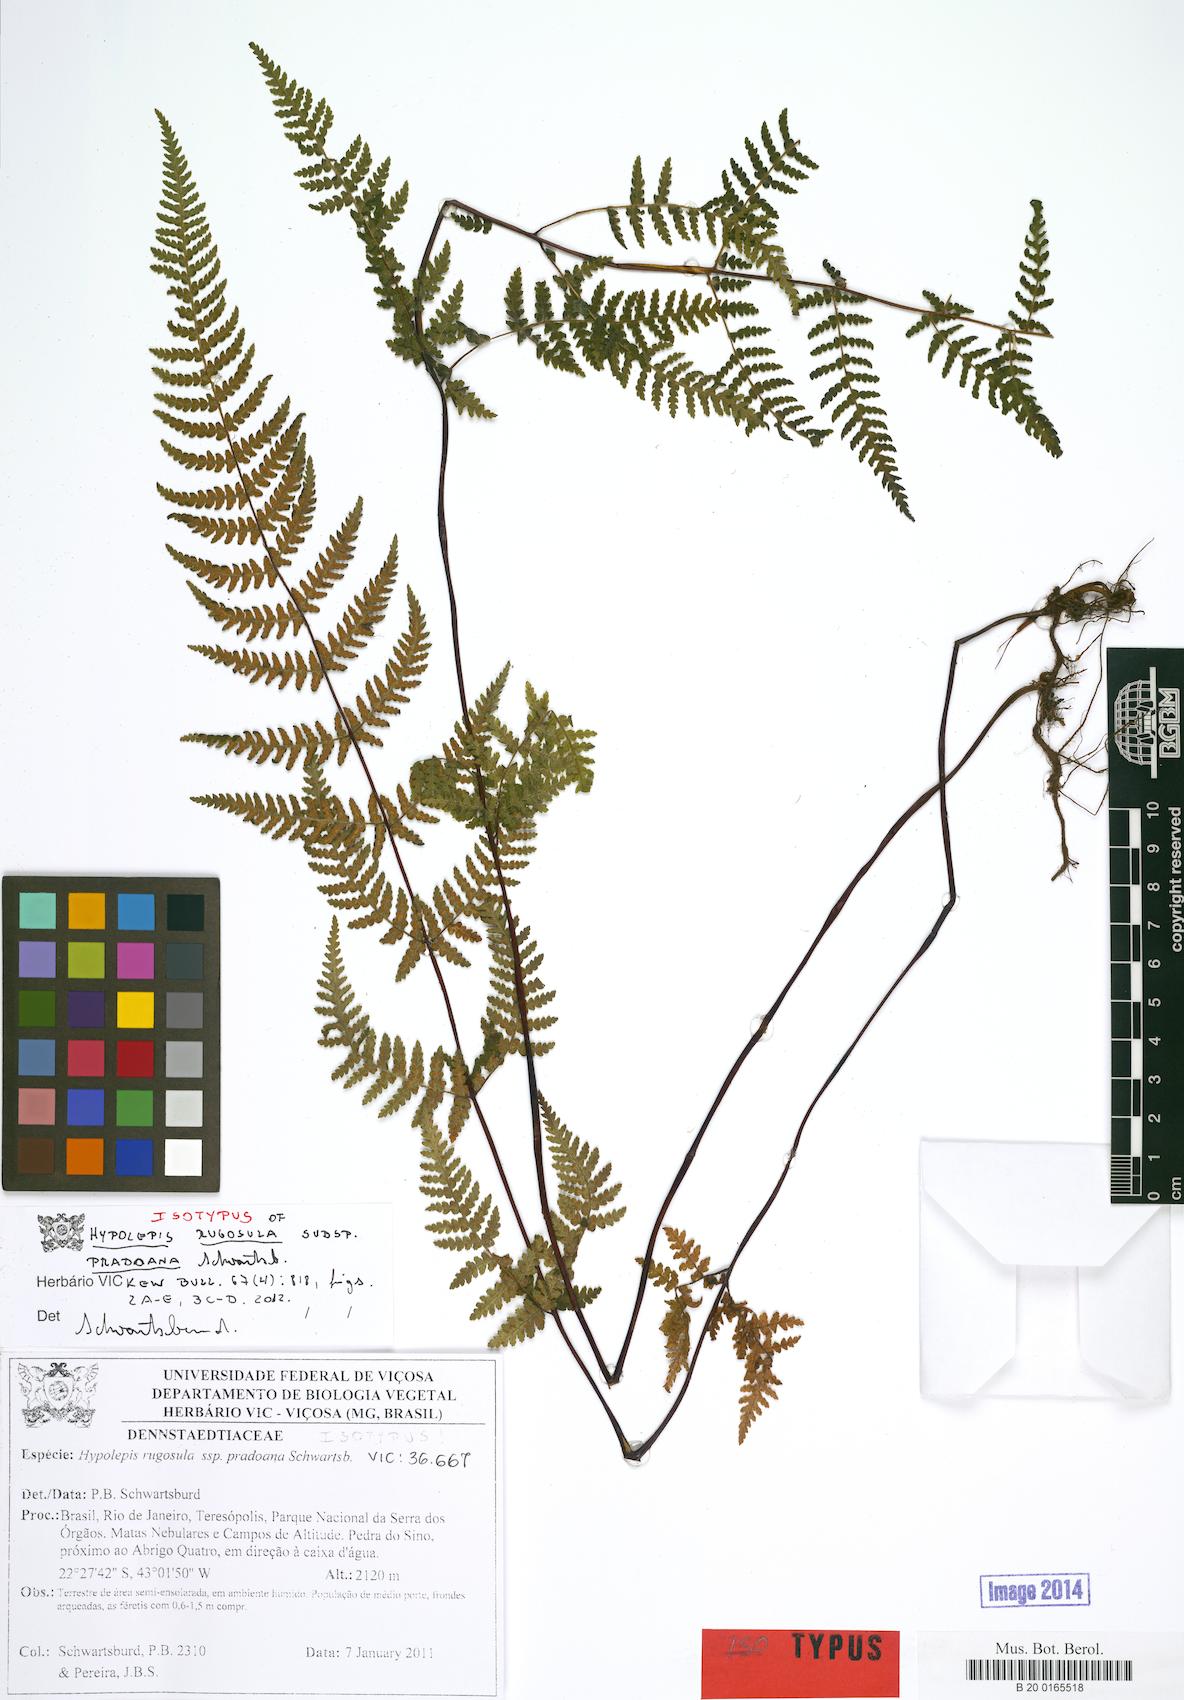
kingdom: Plantae
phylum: Tracheophyta
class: Polypodiopsida
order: Polypodiales
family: Dennstaedtiaceae
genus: Hypolepis
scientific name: Hypolepis rugosula
